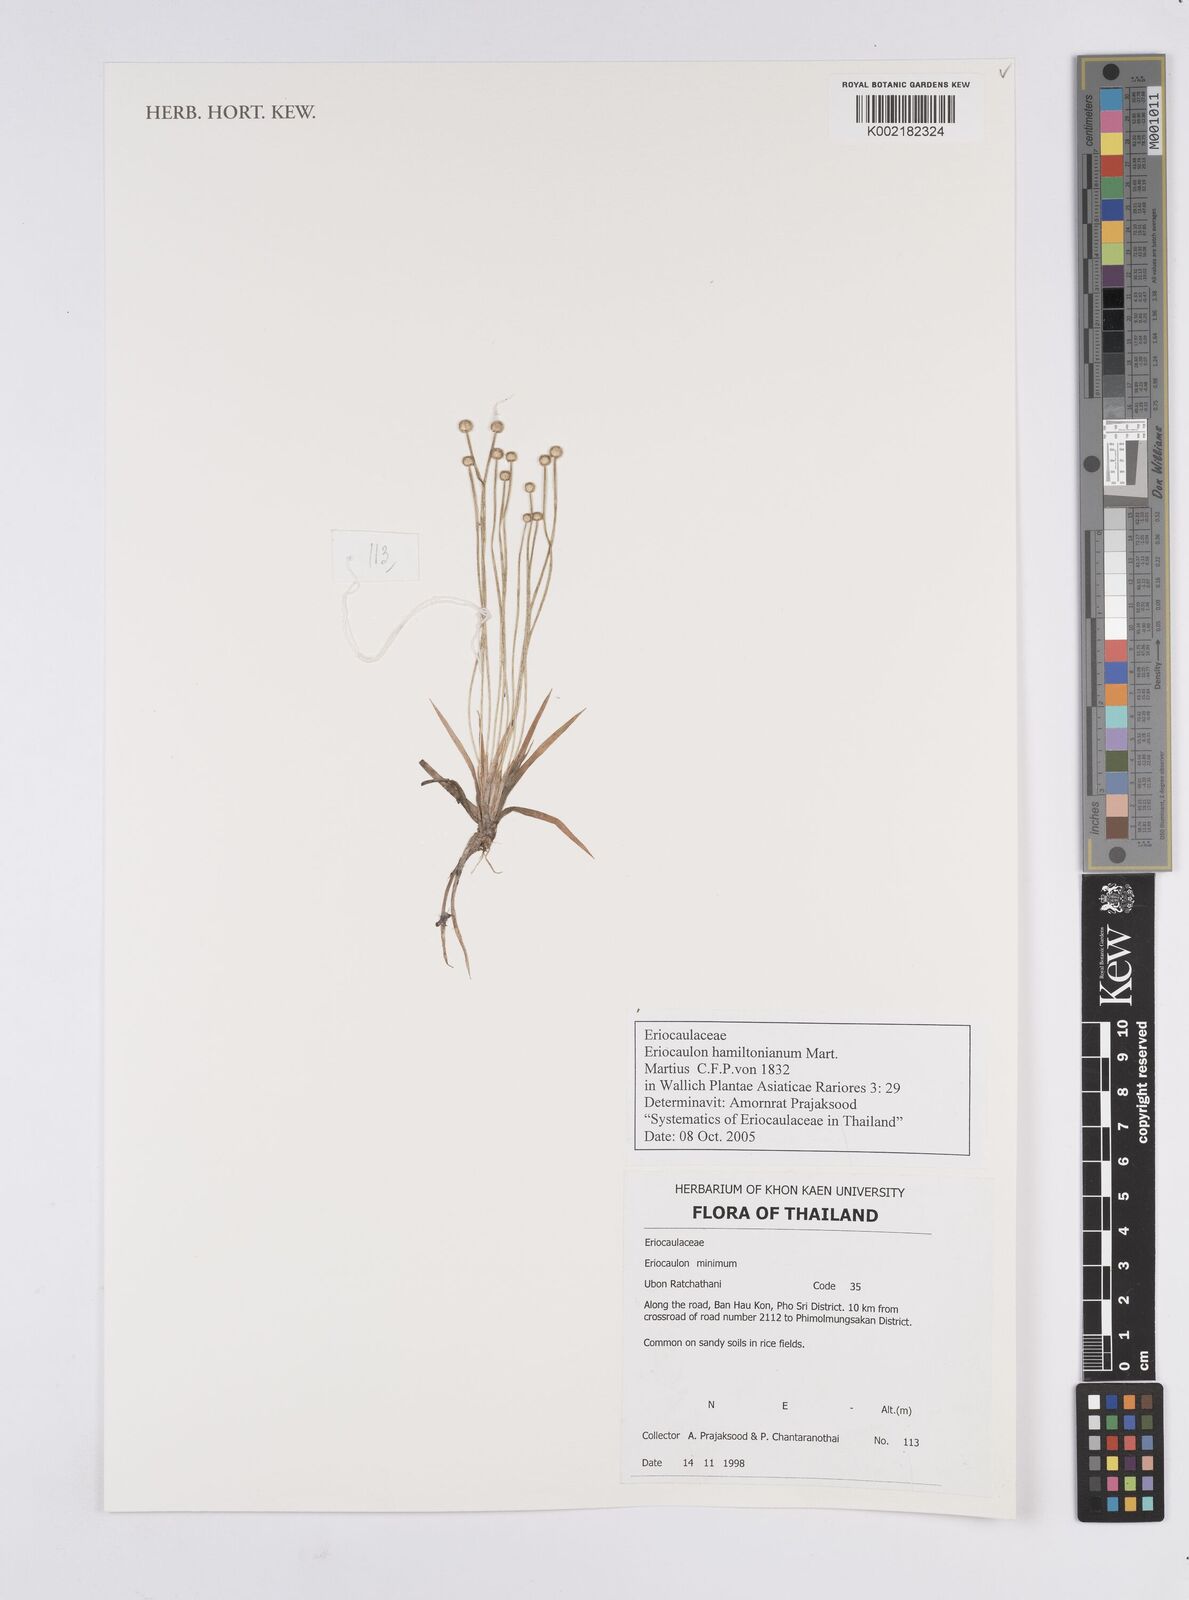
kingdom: Plantae
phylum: Tracheophyta
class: Liliopsida
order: Poales
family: Eriocaulaceae
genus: Eriocaulon
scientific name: Eriocaulon hamiltonianum
